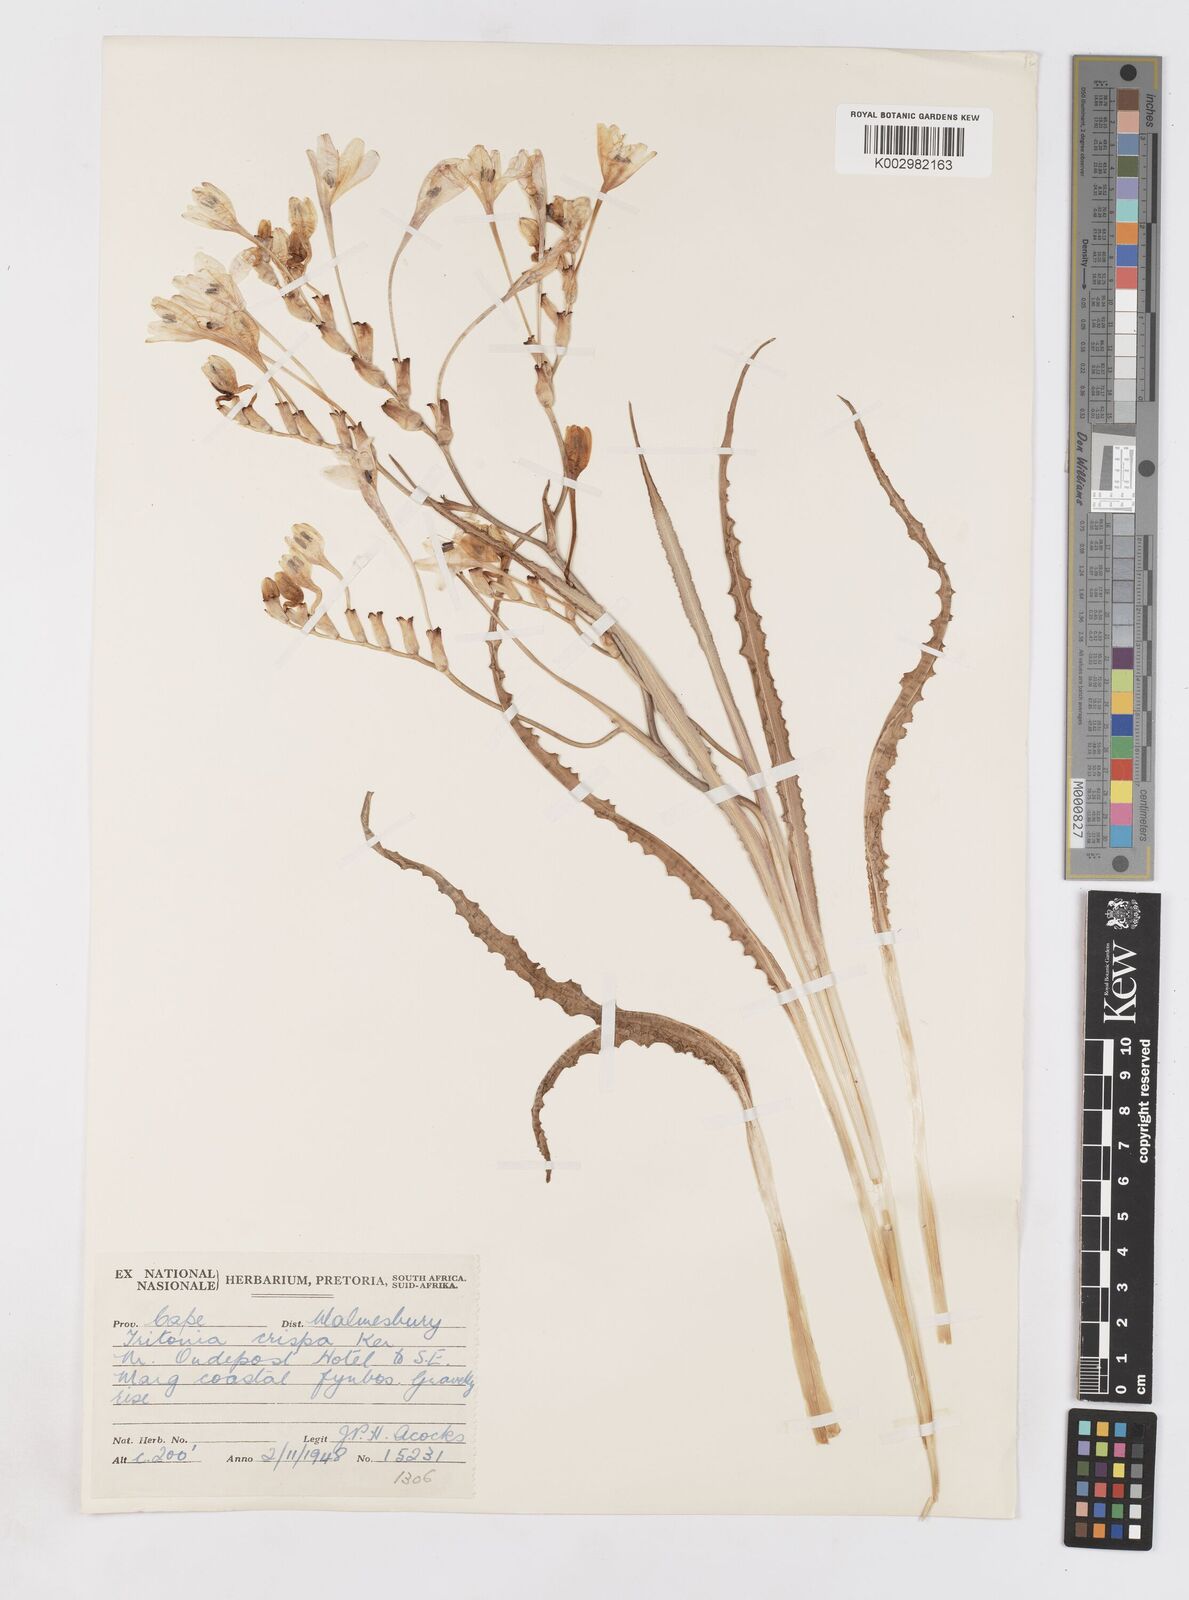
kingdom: Plantae
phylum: Tracheophyta
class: Liliopsida
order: Asparagales
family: Iridaceae
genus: Tritonia
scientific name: Tritonia undulata
